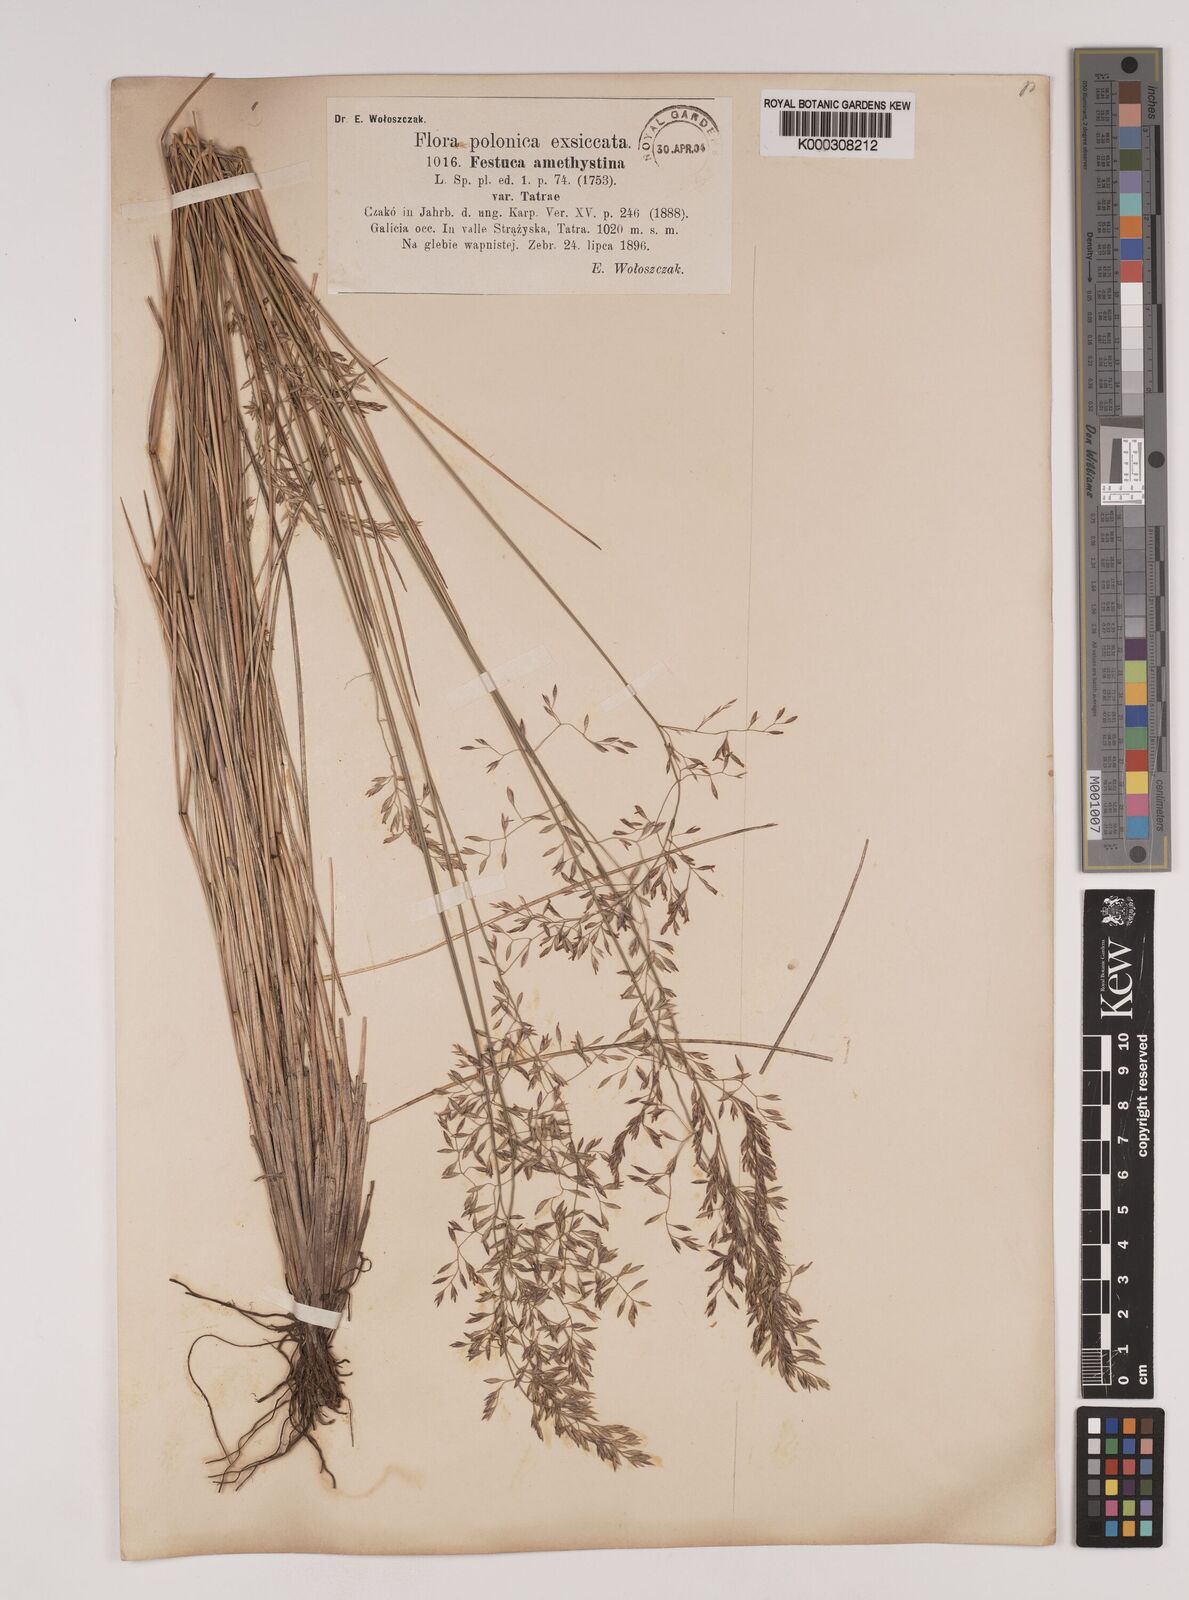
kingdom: Plantae
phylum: Tracheophyta
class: Liliopsida
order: Poales
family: Poaceae
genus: Festuca
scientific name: Festuca
